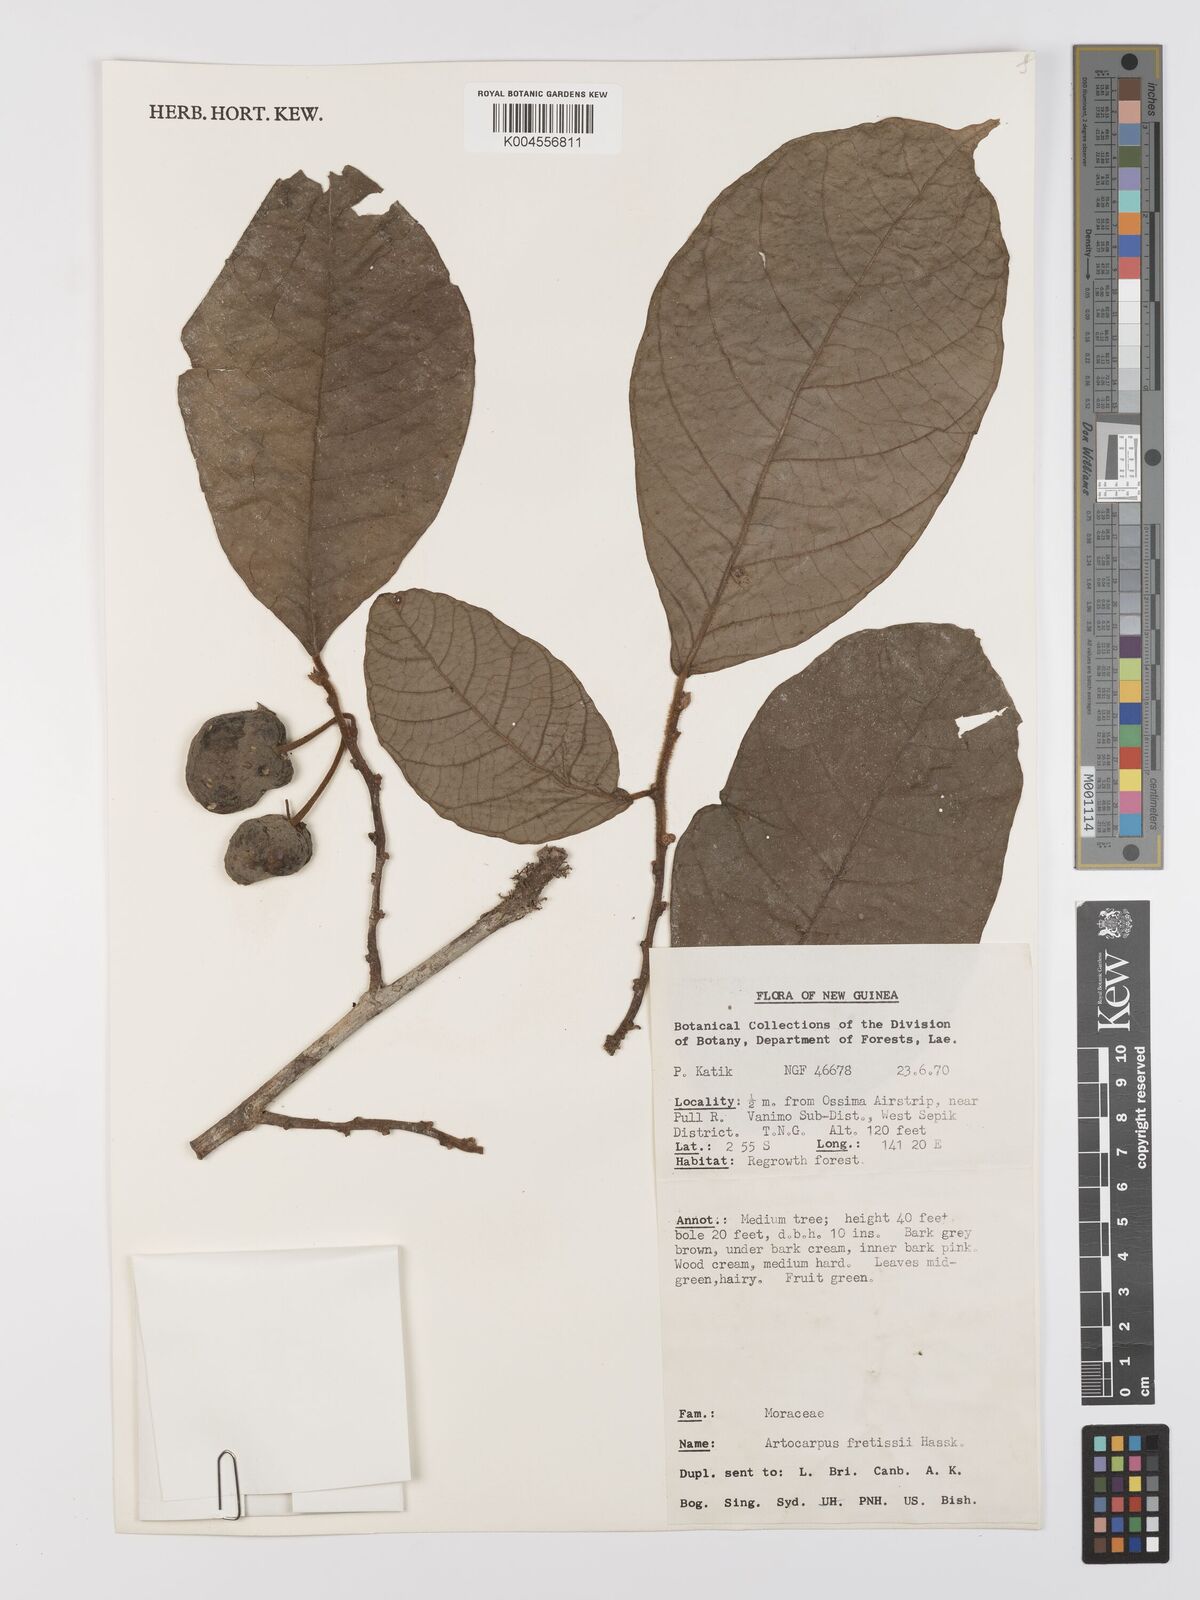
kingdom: Plantae
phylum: Tracheophyta
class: Magnoliopsida
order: Rosales
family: Moraceae
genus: Artocarpus
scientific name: Artocarpus lacucha
